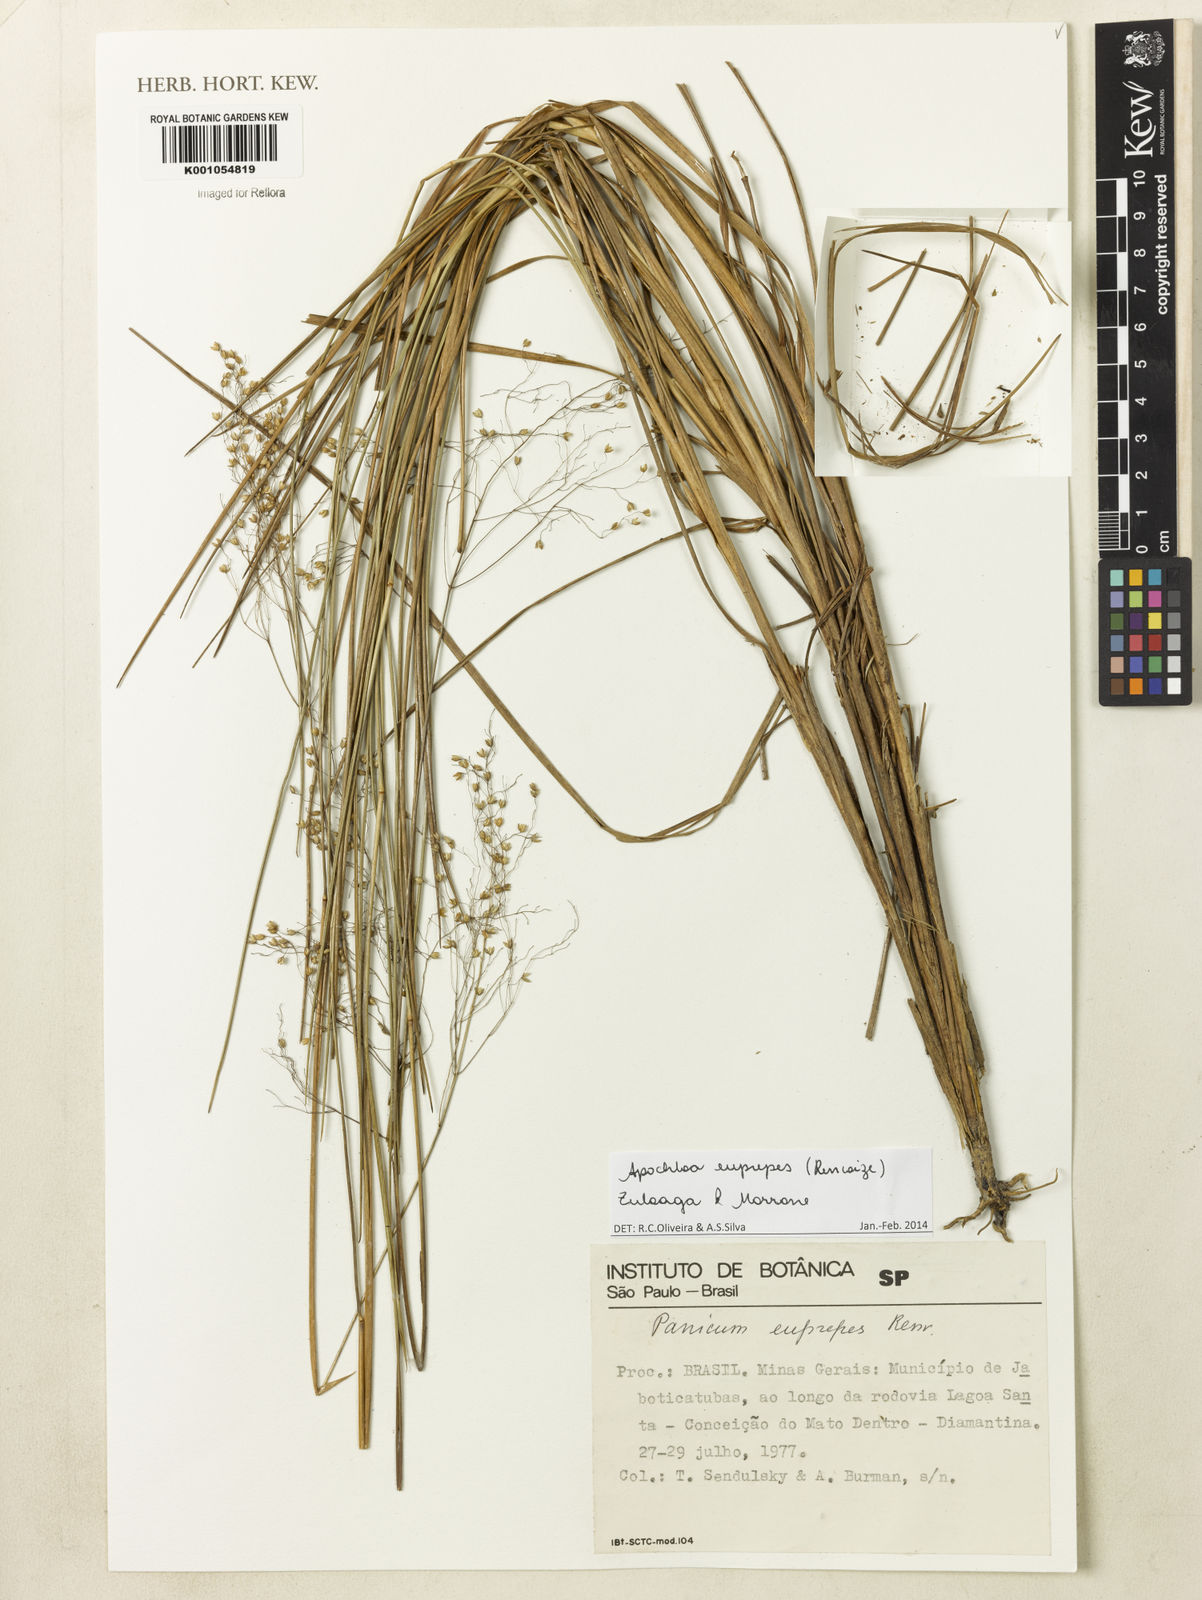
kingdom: Plantae
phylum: Tracheophyta
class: Liliopsida
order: Poales
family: Poaceae
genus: Apochloa
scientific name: Apochloa euprepes
